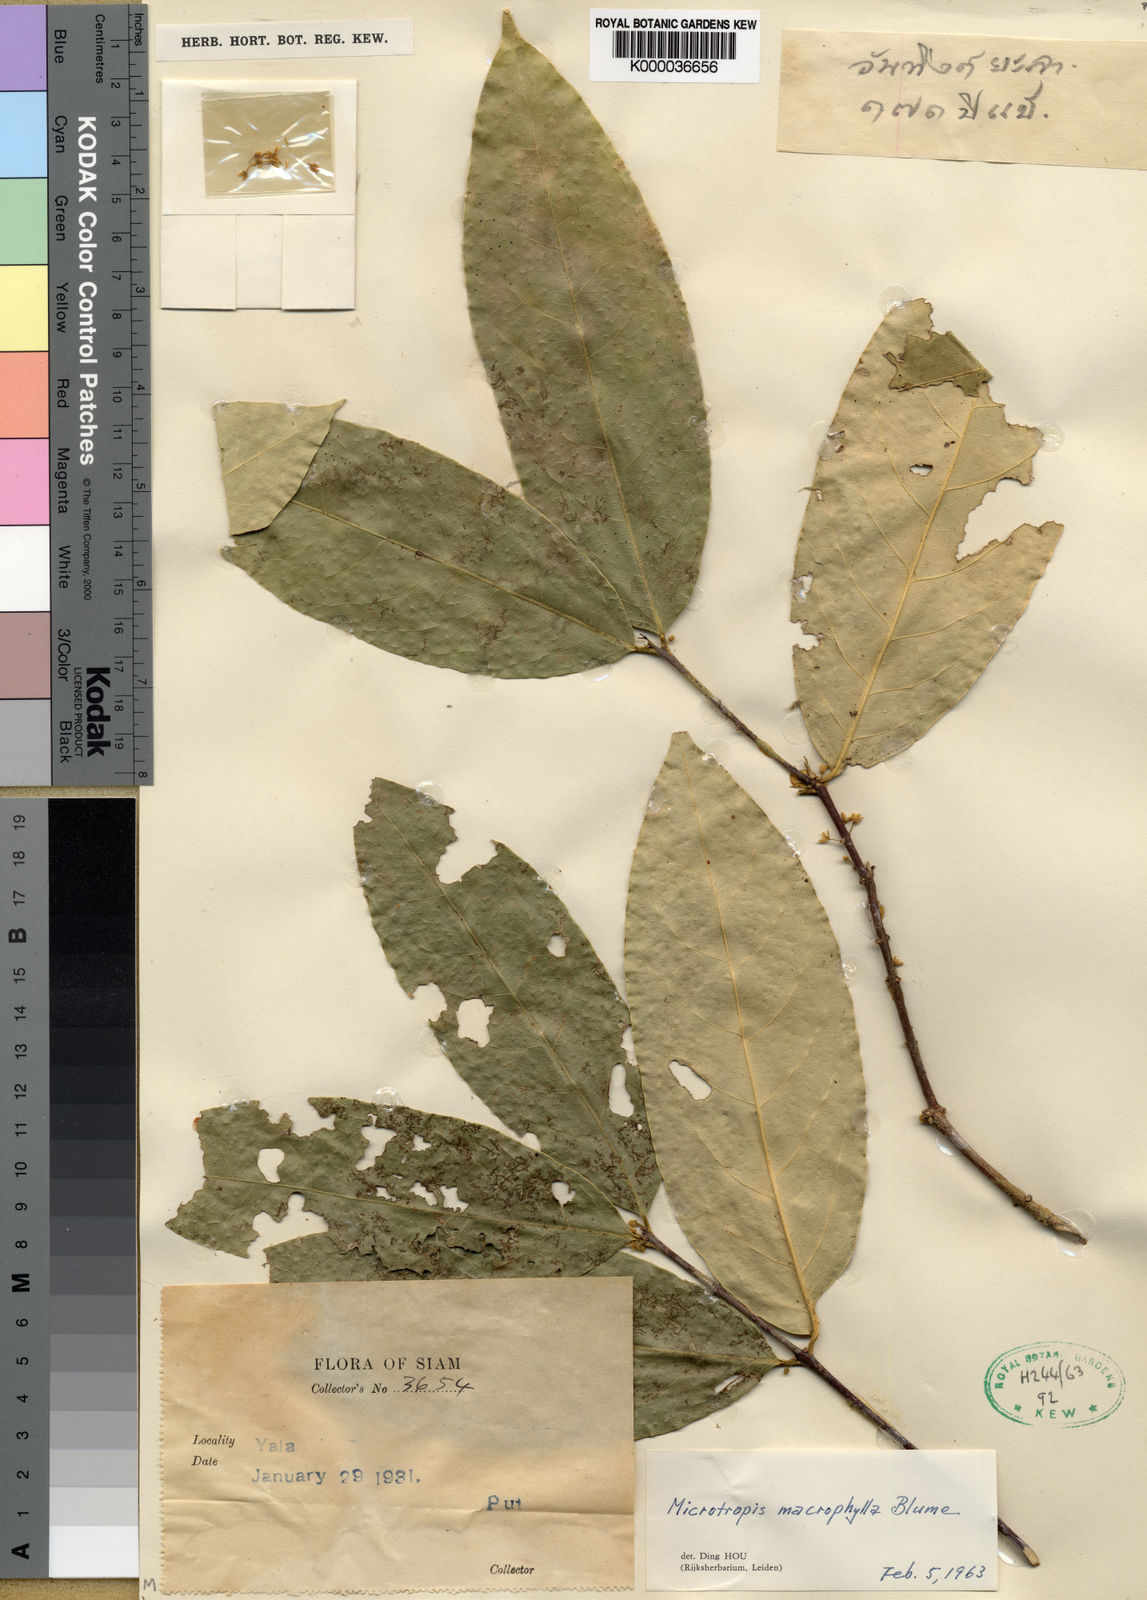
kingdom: Plantae
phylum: Tracheophyta
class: Magnoliopsida
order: Celastrales
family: Celastraceae
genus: Microtropis
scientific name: Microtropis
